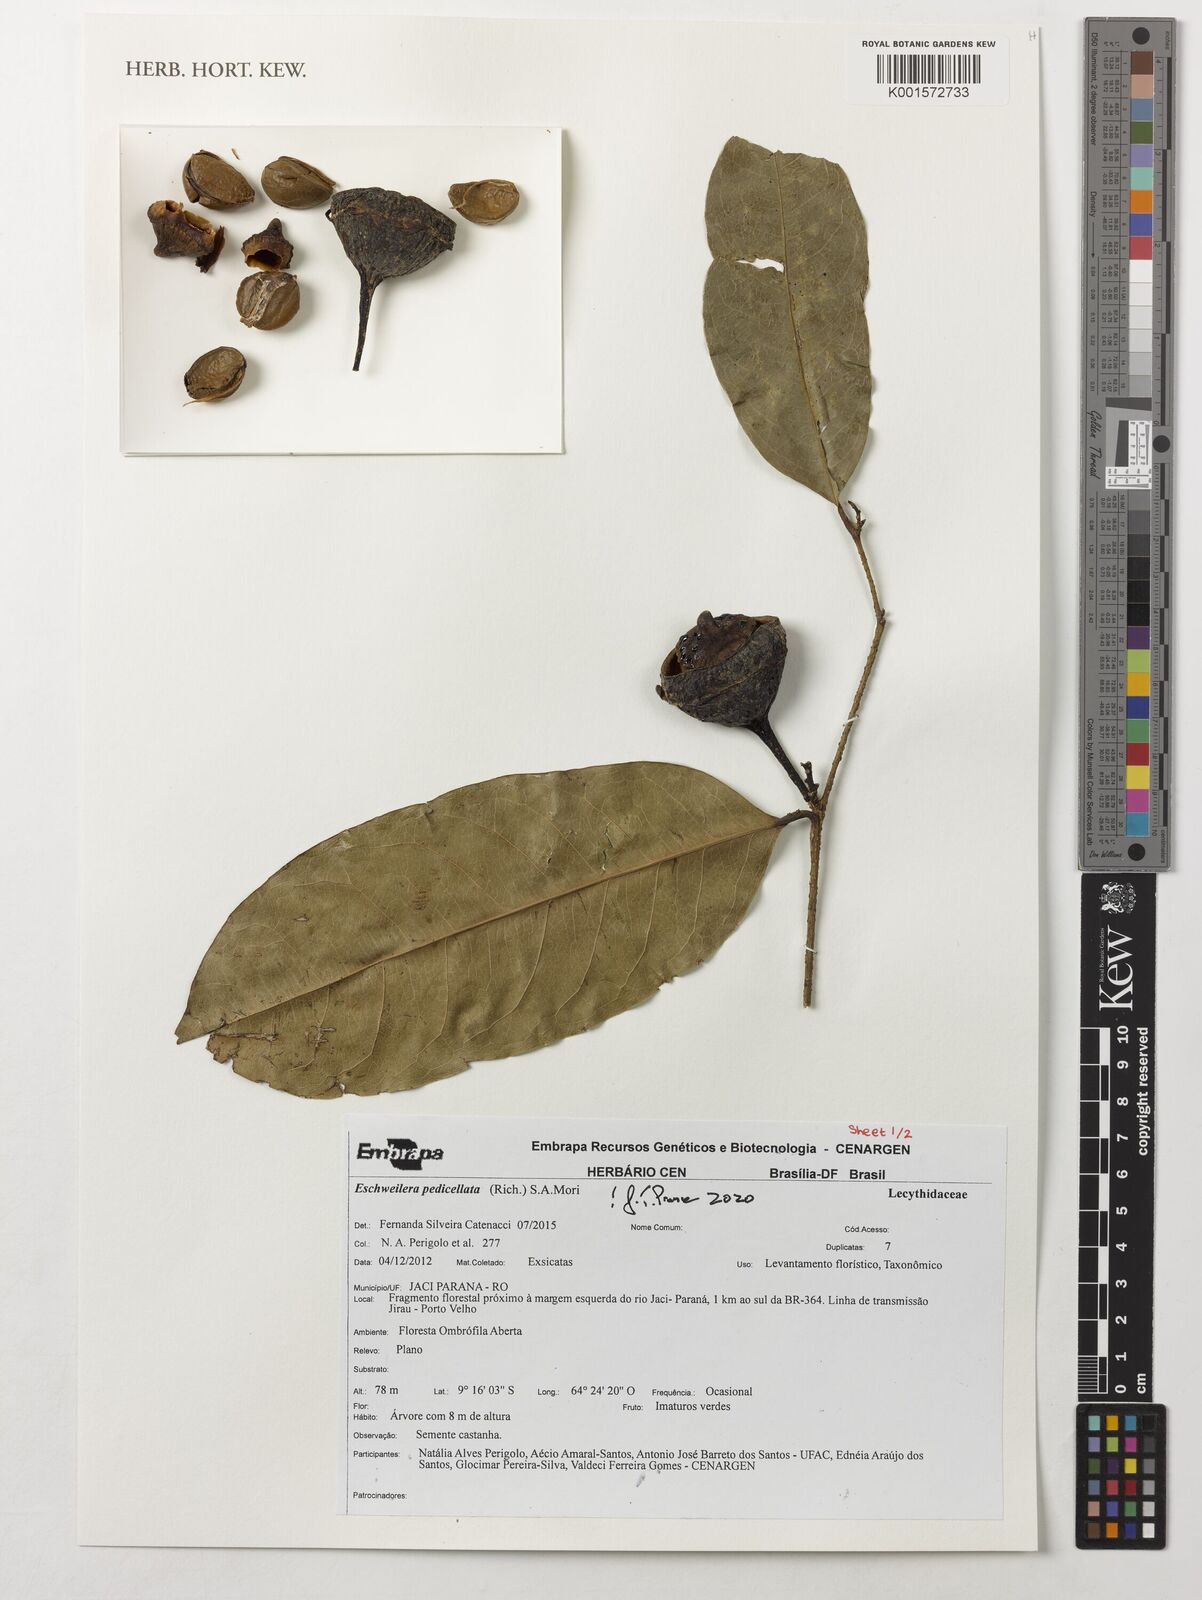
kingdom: Plantae
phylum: Tracheophyta
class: Magnoliopsida
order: Ericales
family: Lecythidaceae
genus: Eschweilera
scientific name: Eschweilera pedicellata
